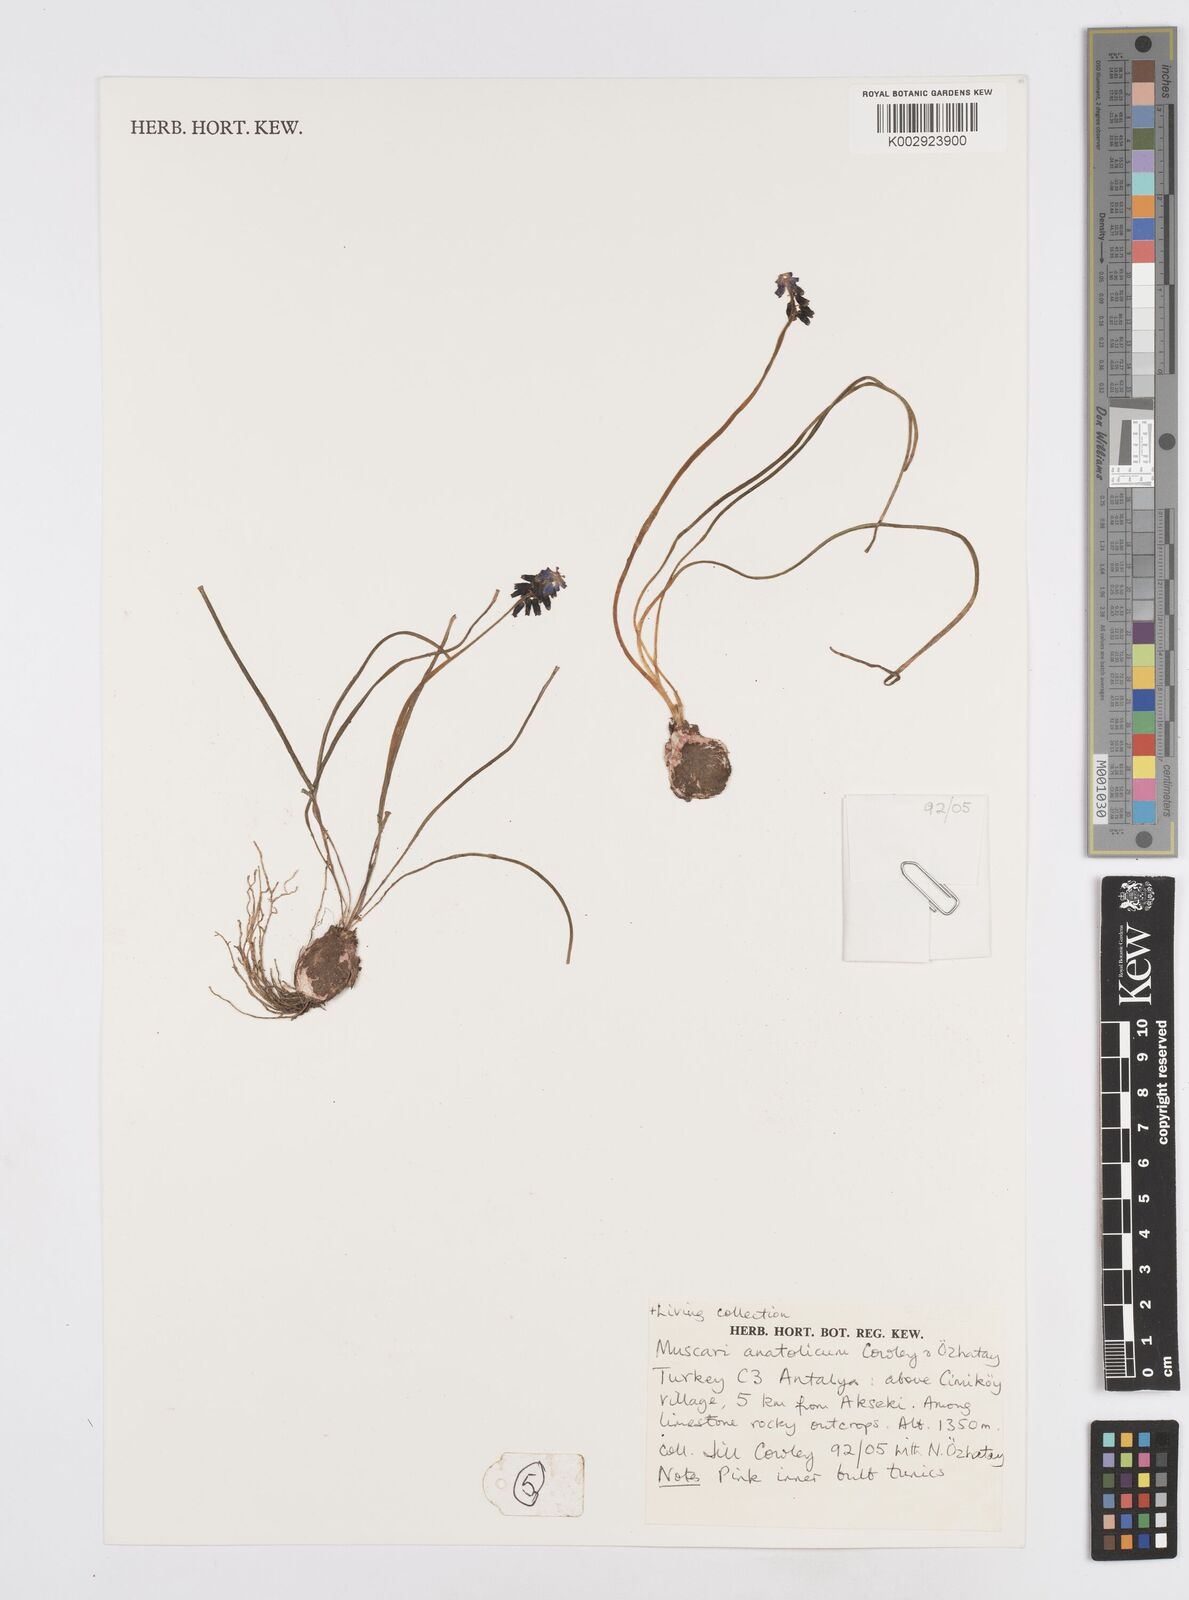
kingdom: Plantae
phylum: Tracheophyta
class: Liliopsida
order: Asparagales
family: Asparagaceae
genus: Muscari
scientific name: Muscari anatolicum
